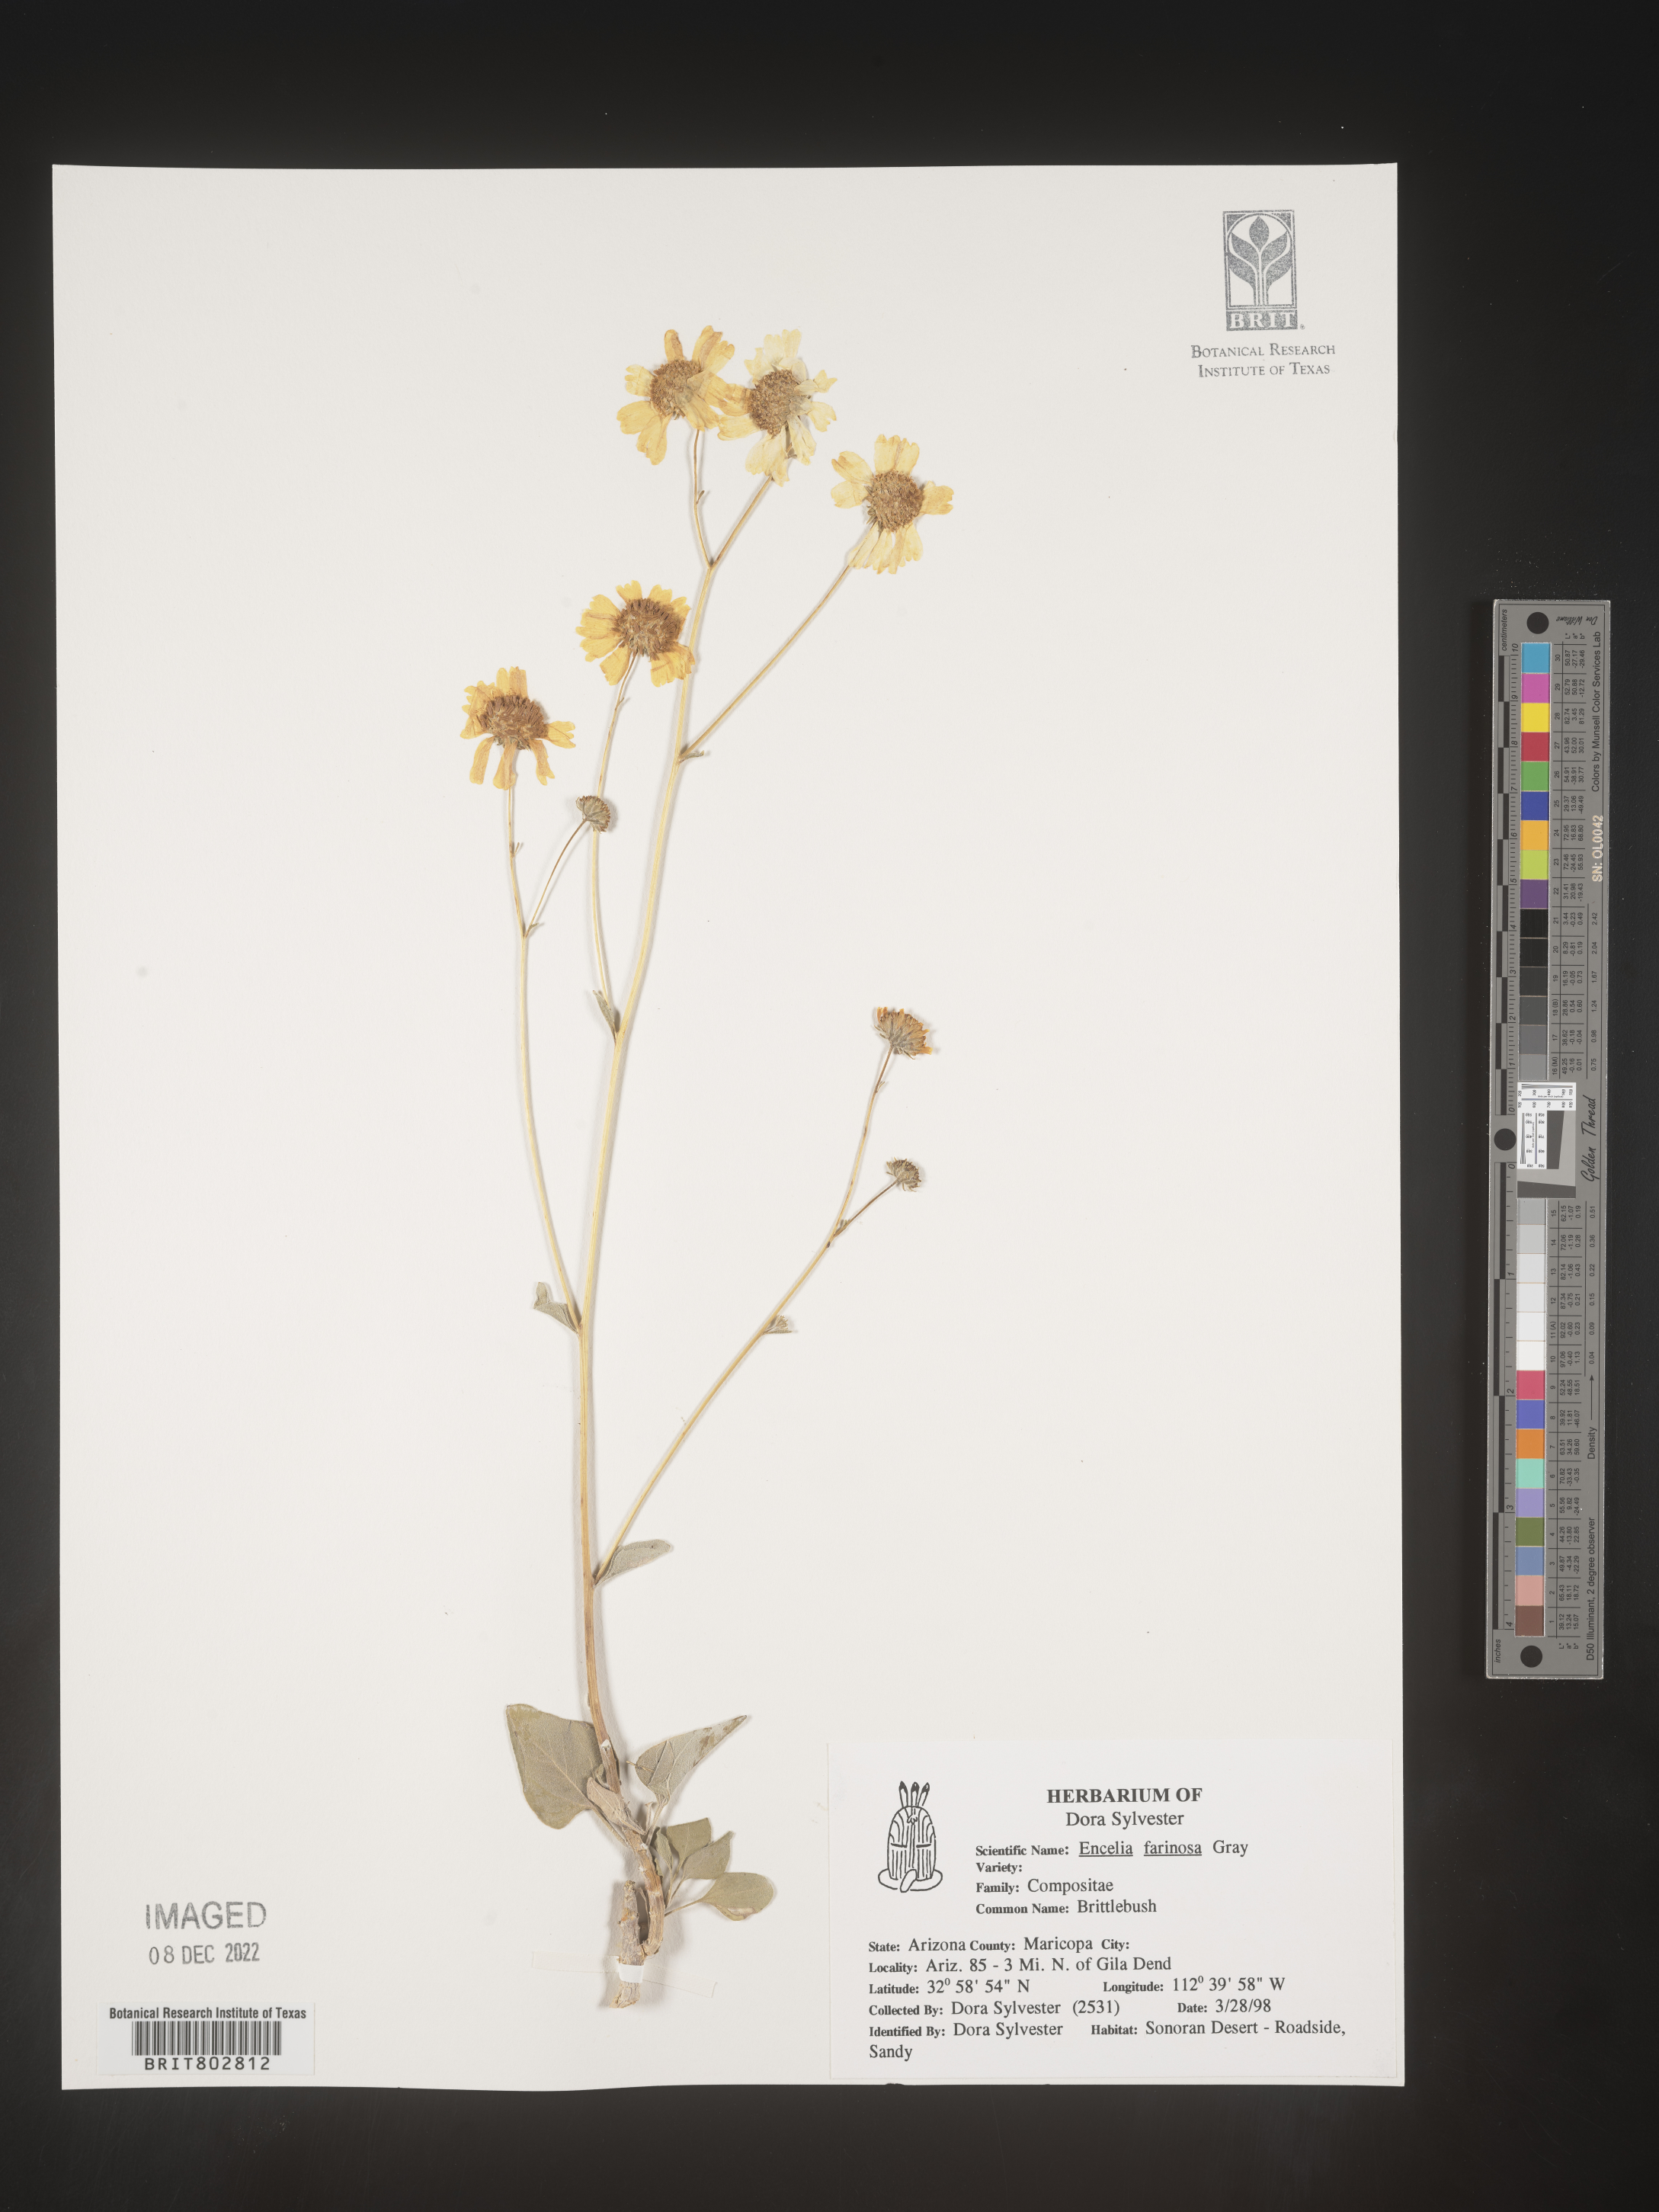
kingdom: Plantae
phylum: Tracheophyta
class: Magnoliopsida
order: Asterales
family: Asteraceae
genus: Encelia
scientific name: Encelia farinosa
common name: Brittlebush
